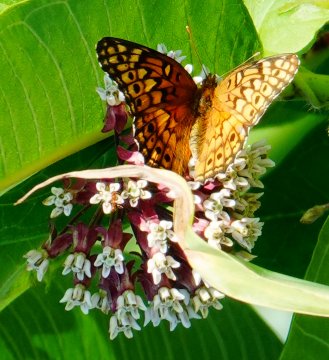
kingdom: Animalia
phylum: Arthropoda
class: Insecta
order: Lepidoptera
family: Nymphalidae
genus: Euptoieta
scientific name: Euptoieta claudia
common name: Variegated Fritillary
